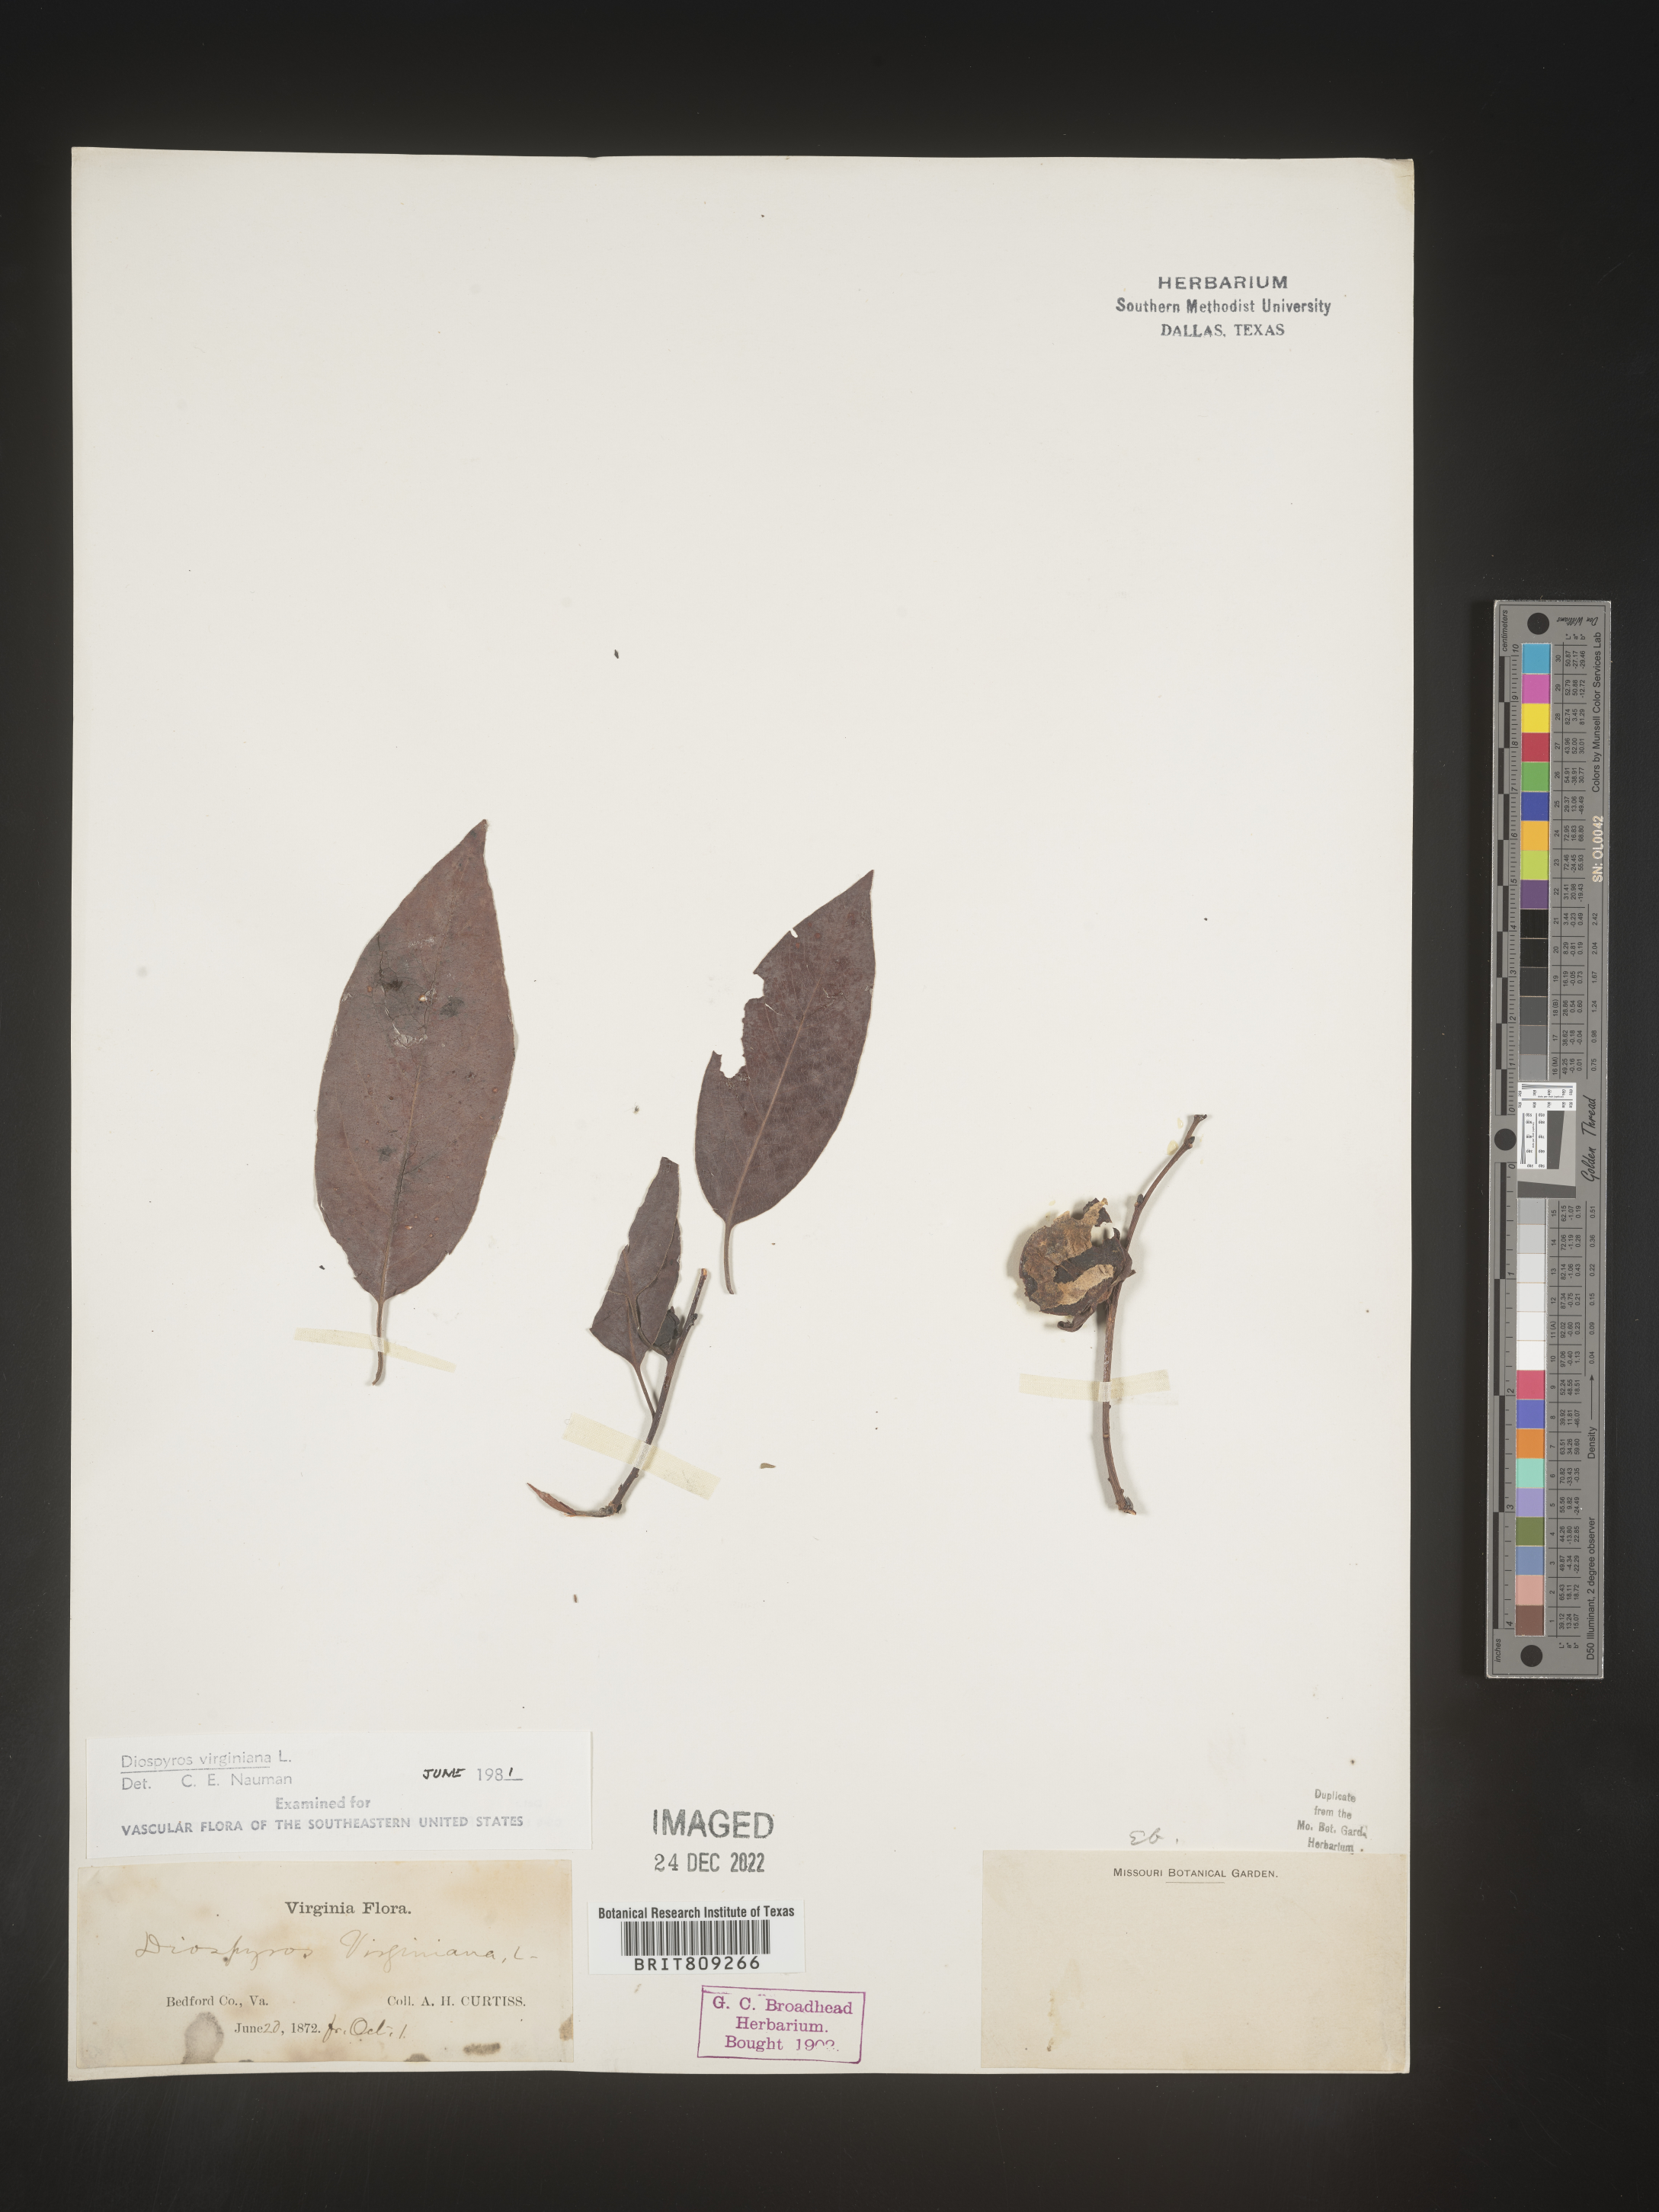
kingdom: Plantae
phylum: Tracheophyta
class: Magnoliopsida
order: Ericales
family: Ebenaceae
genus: Diospyros
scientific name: Diospyros virginiana
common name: Persimmon
